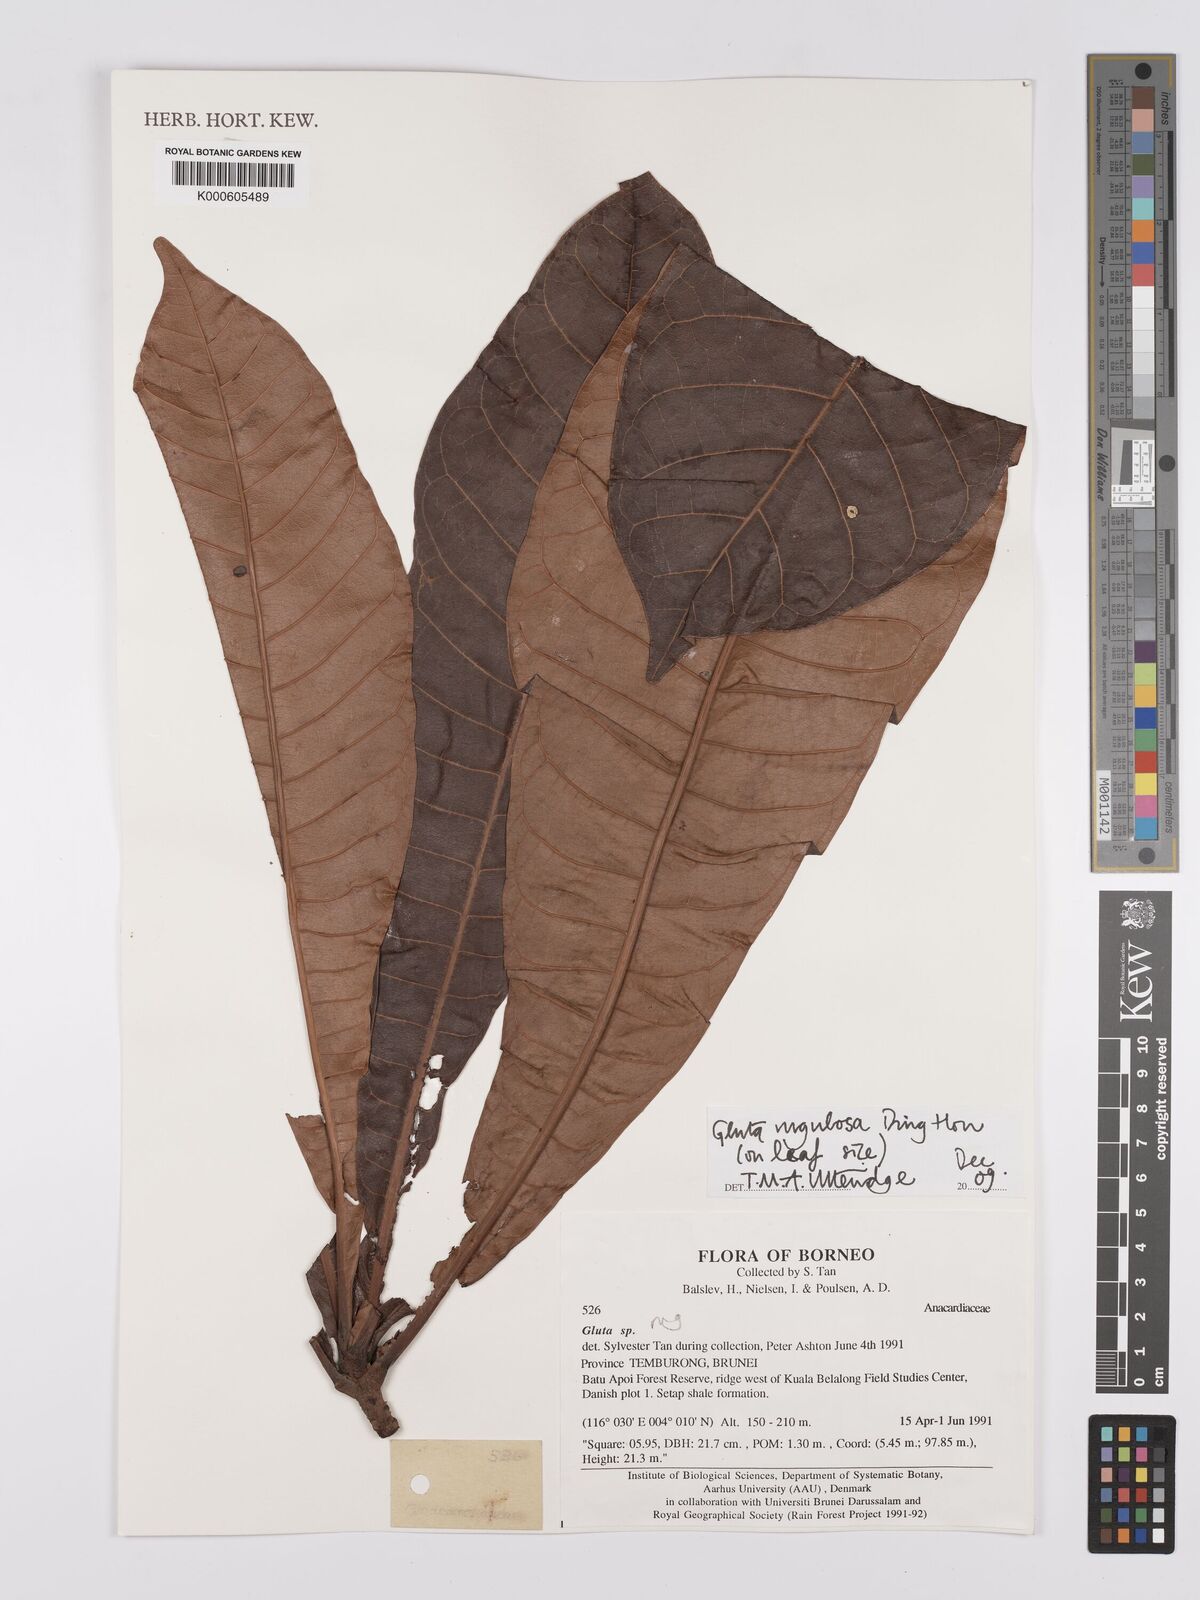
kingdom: Plantae
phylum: Tracheophyta
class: Magnoliopsida
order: Sapindales
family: Anacardiaceae
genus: Gluta
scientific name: Gluta rugulosa
